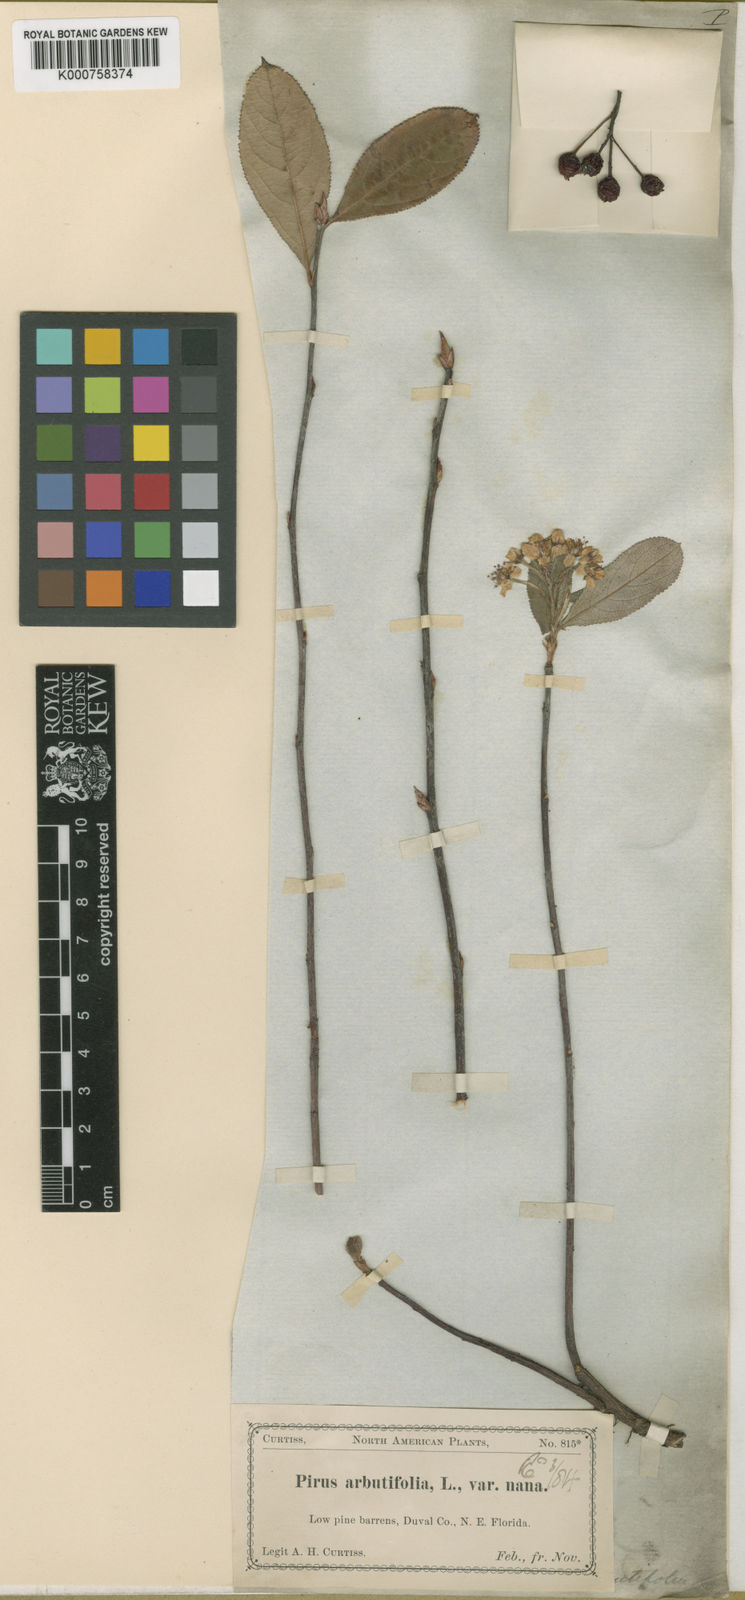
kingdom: Plantae
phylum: Tracheophyta
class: Magnoliopsida
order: Rosales
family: Rosaceae
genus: Heteromeles
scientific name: Heteromeles arbutifolia
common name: California-holly
